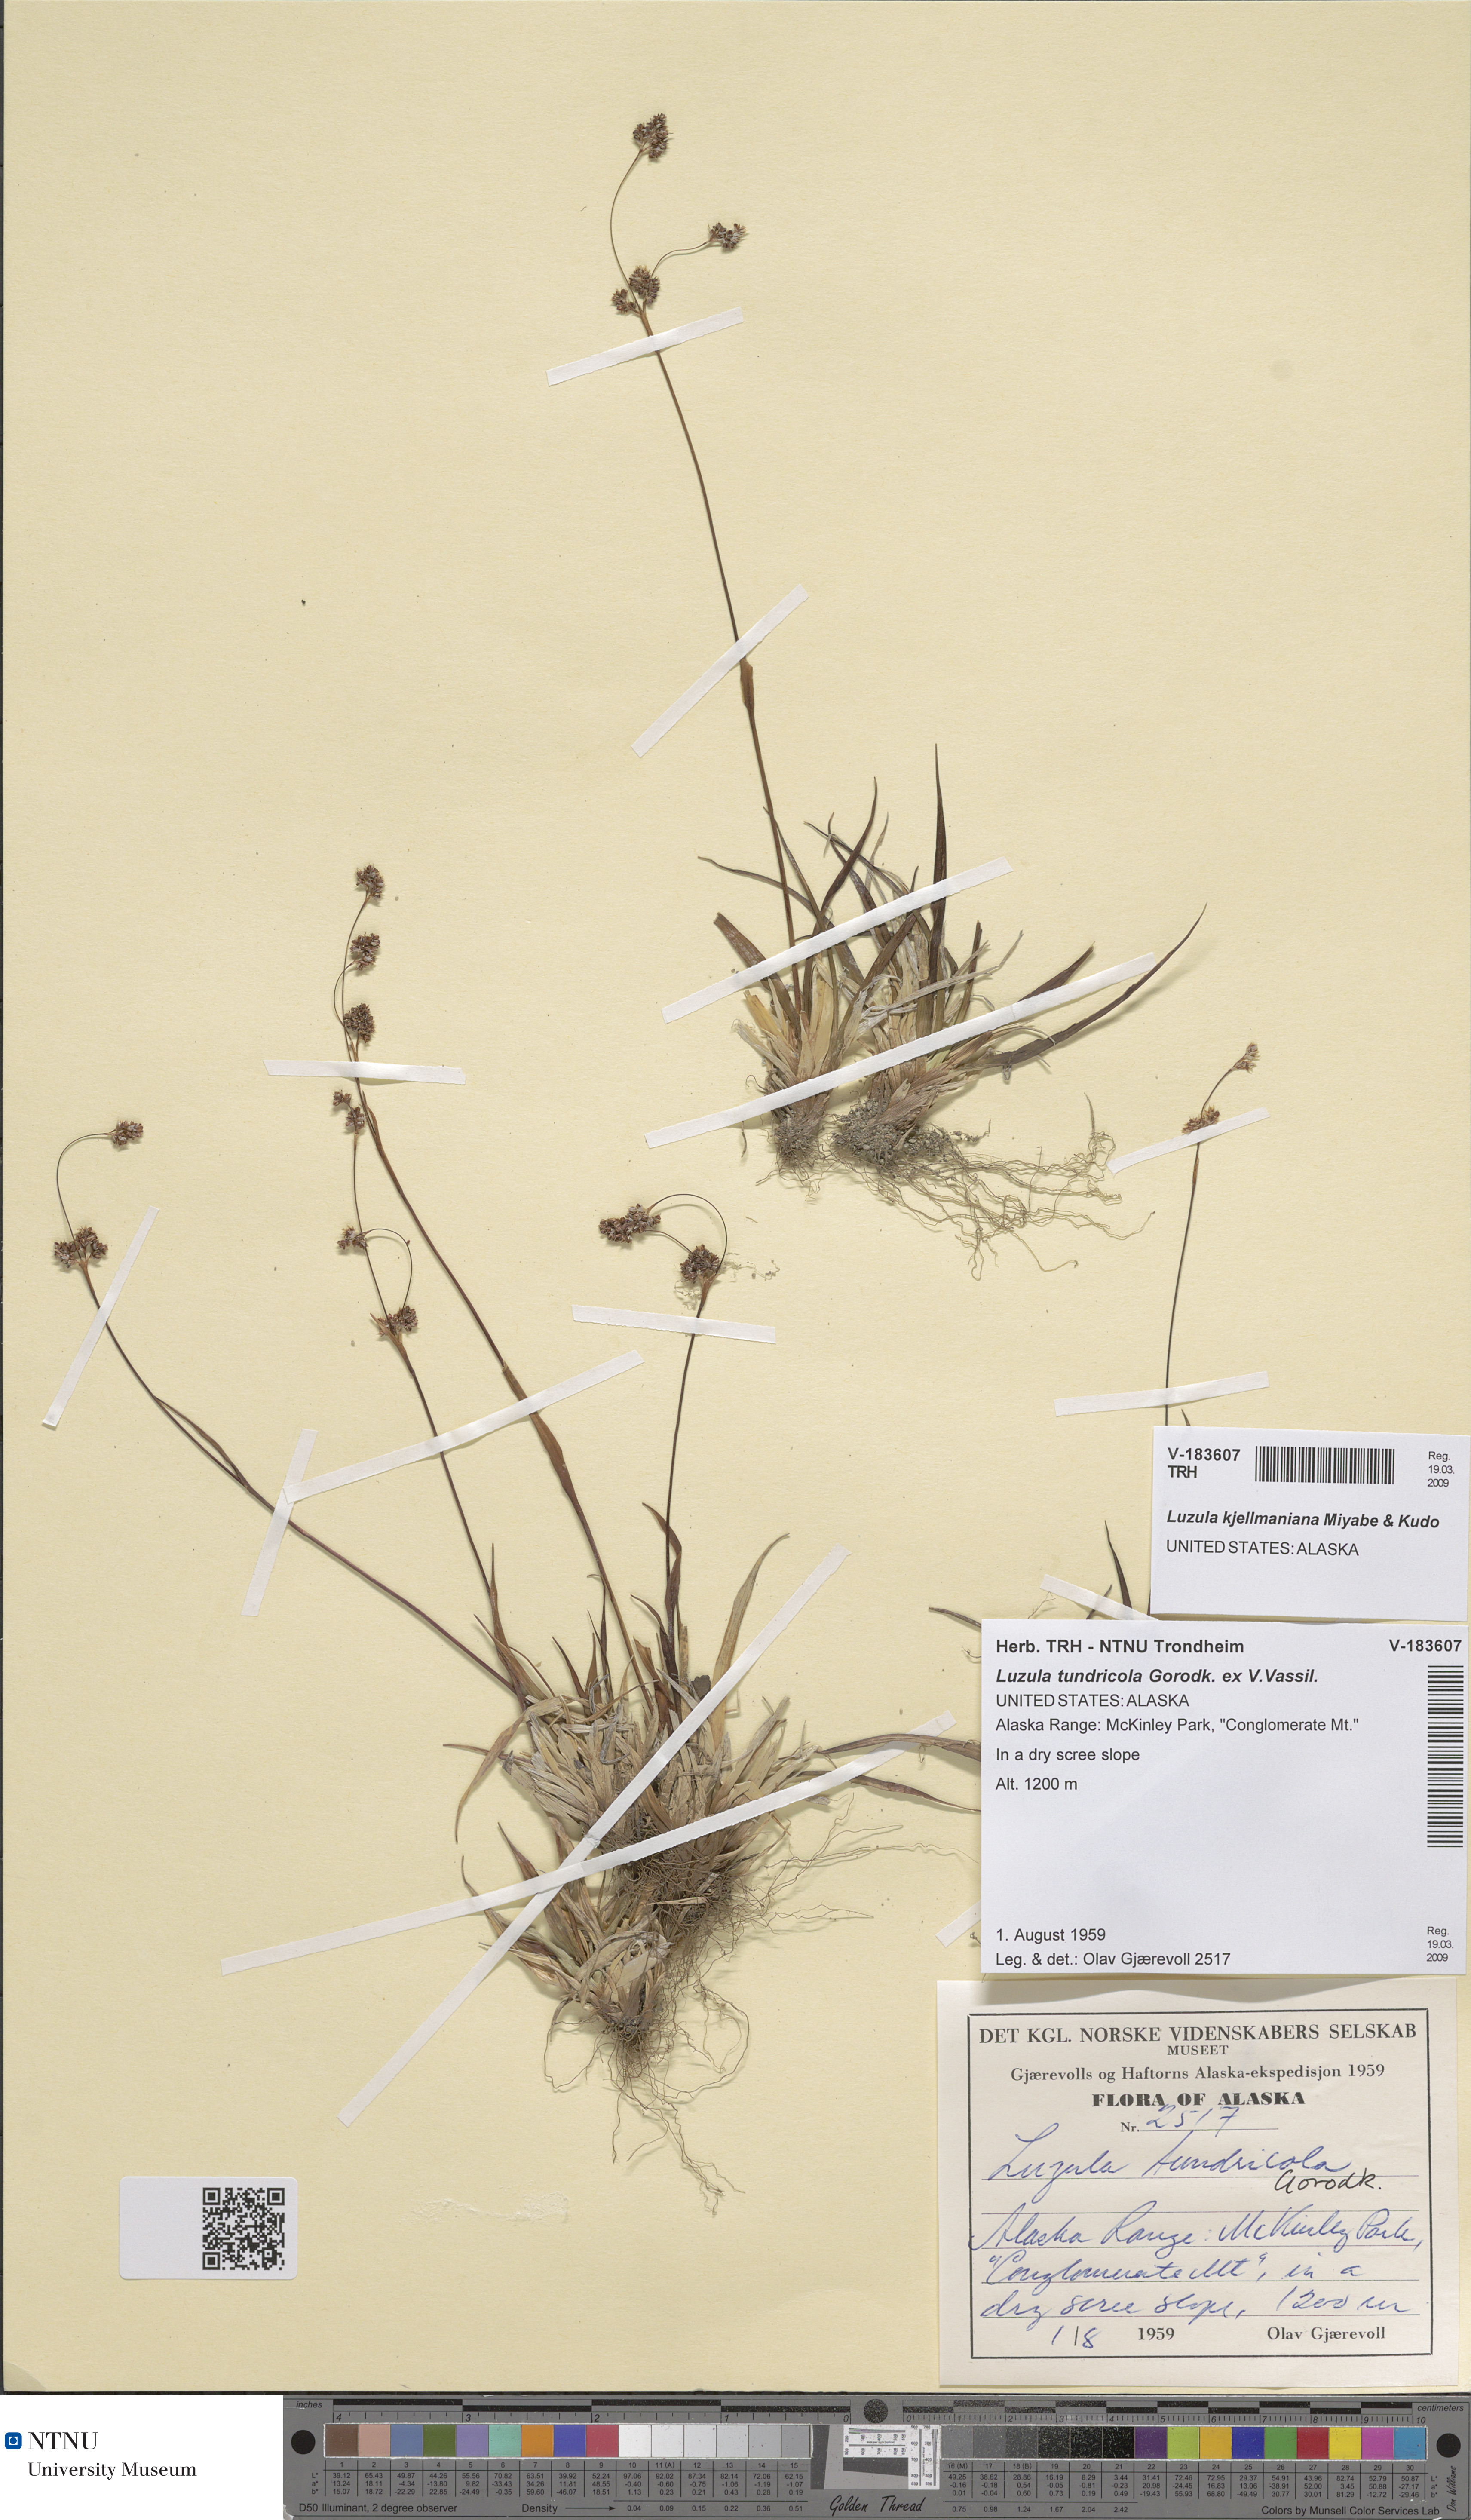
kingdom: Plantae
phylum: Tracheophyta
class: Liliopsida
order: Poales
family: Juncaceae
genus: Luzula
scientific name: Luzula kjellmaniana
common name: Kjellman's woodrush
